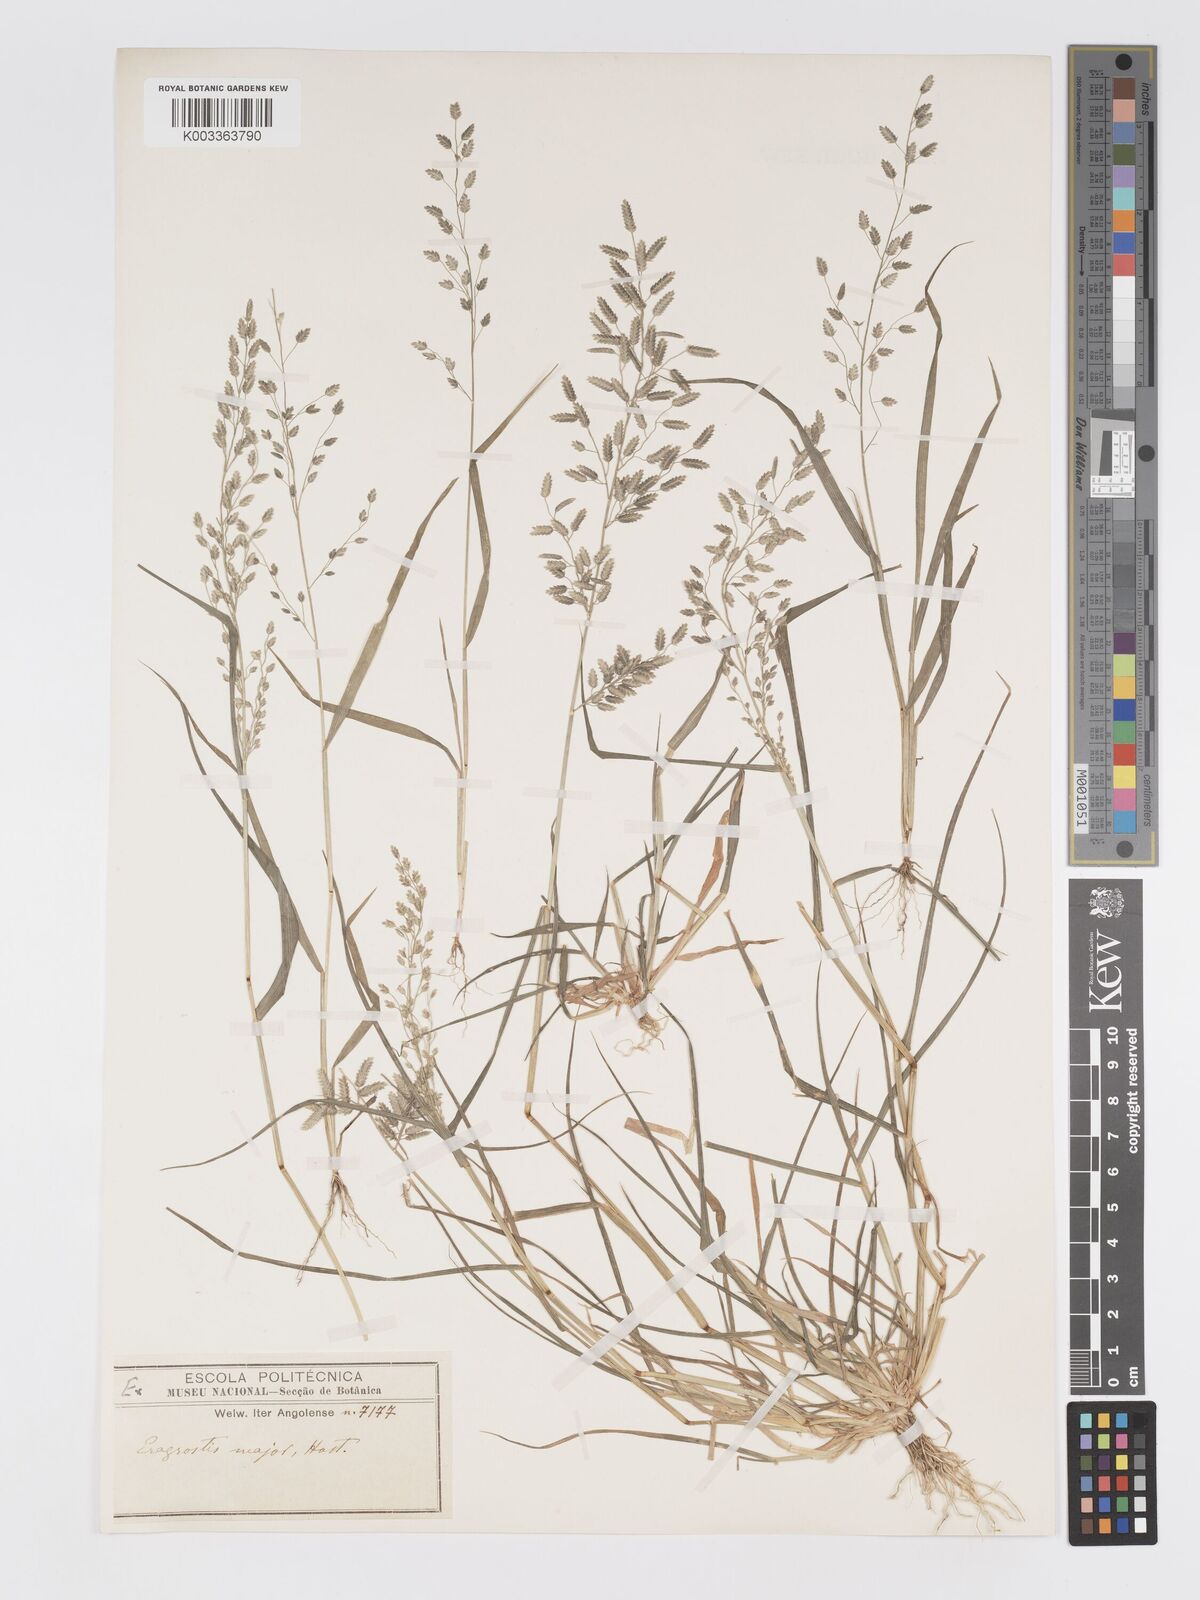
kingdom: Plantae
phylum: Tracheophyta
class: Liliopsida
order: Poales
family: Poaceae
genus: Eragrostis
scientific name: Eragrostis cilianensis
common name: Stinkgrass
